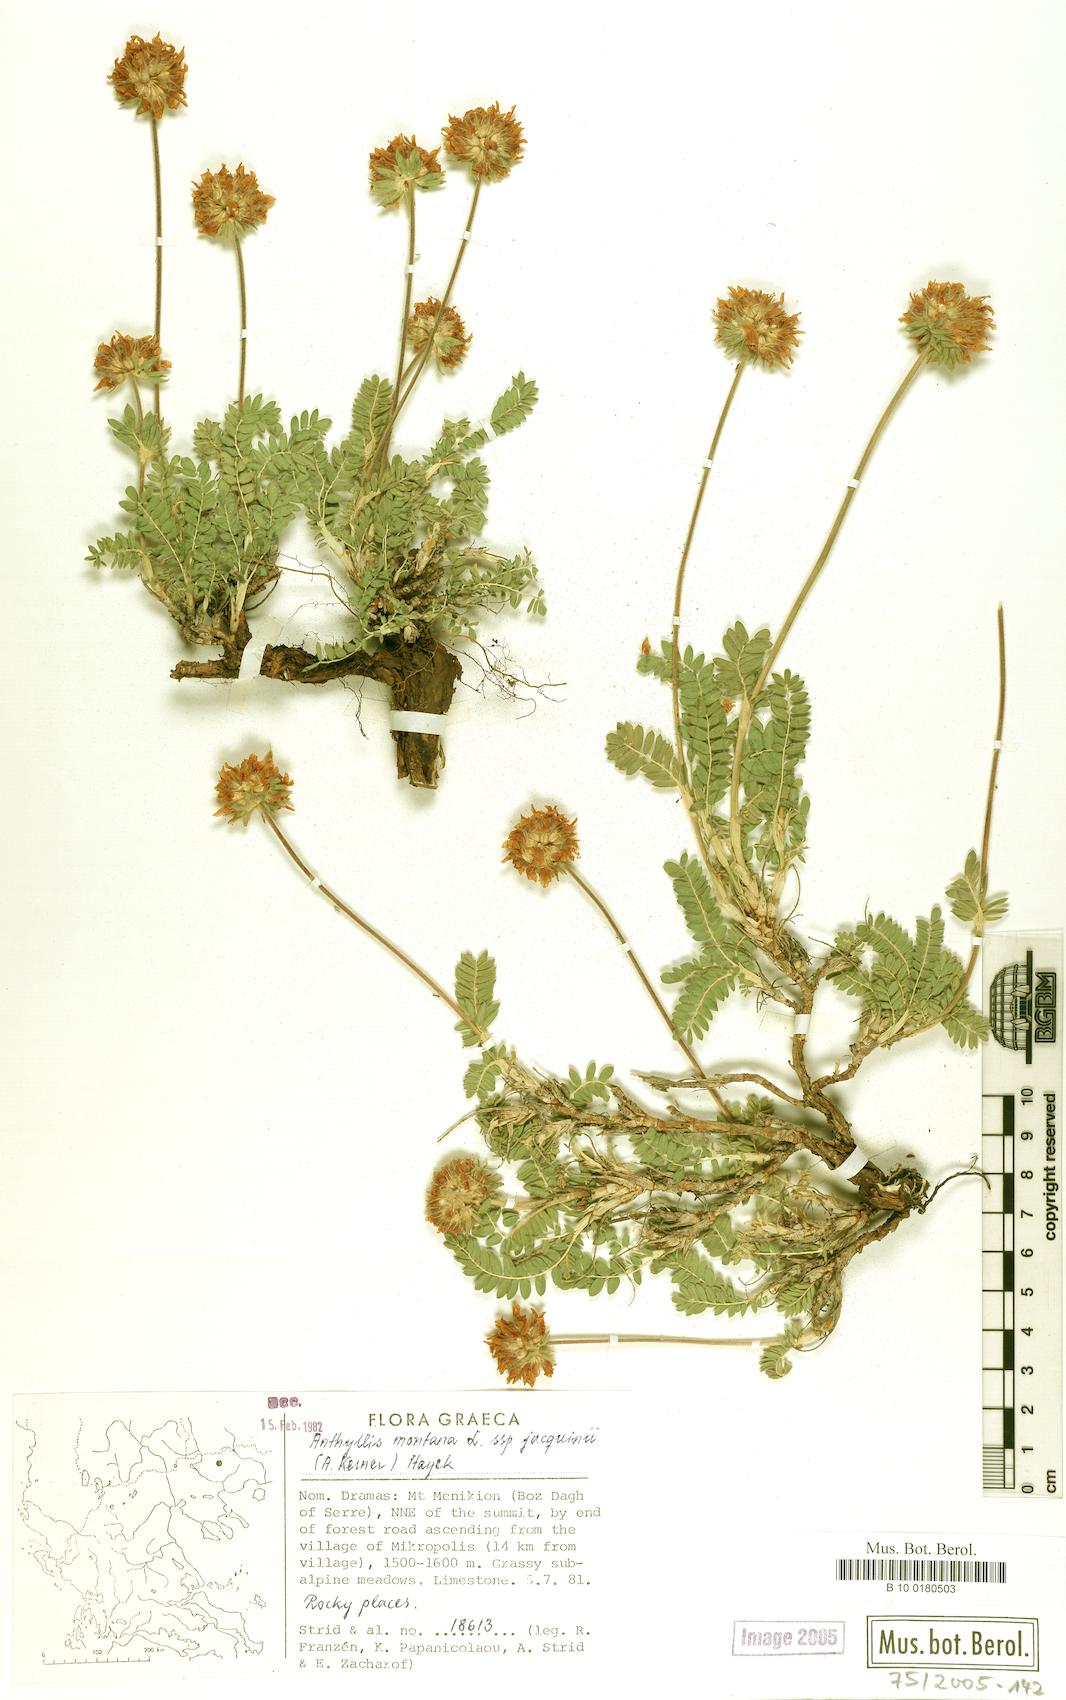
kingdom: Plantae
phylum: Tracheophyta
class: Magnoliopsida
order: Fabales
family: Fabaceae
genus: Anthyllis
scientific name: Anthyllis montana
